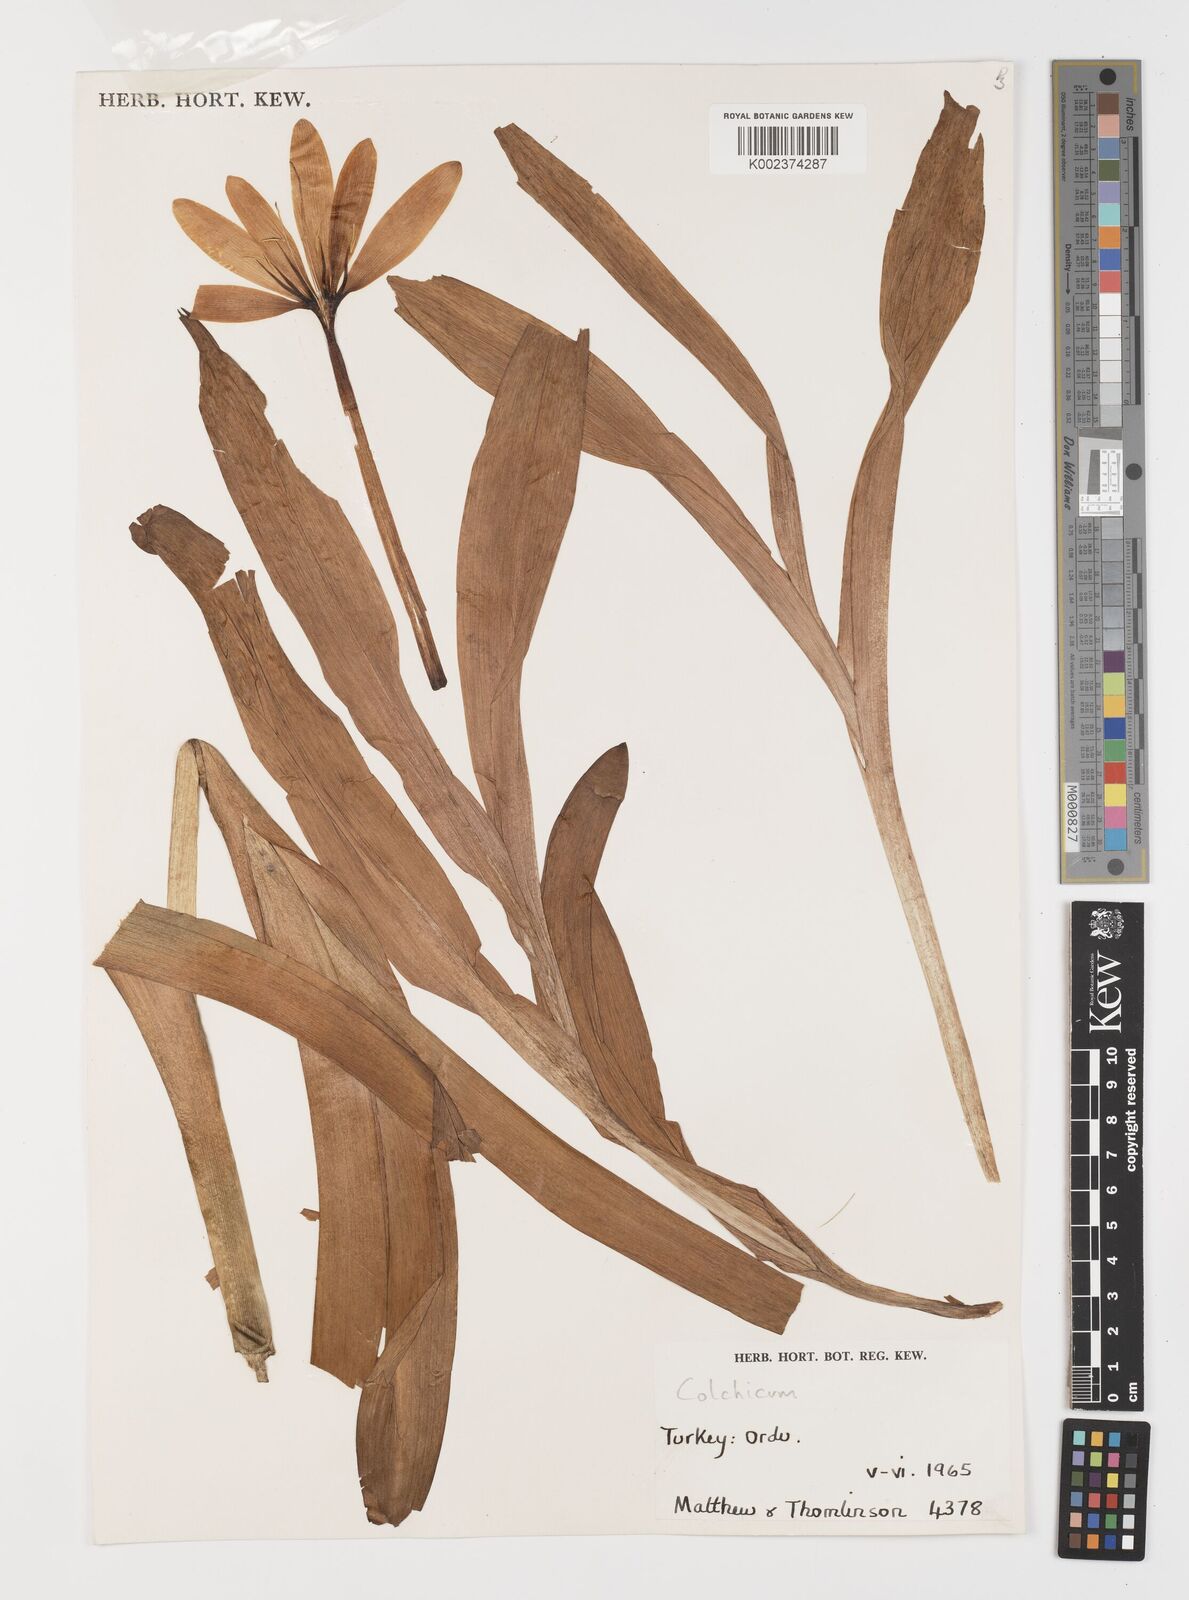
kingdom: Plantae
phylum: Tracheophyta
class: Liliopsida
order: Liliales
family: Colchicaceae
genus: Colchicum
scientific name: Colchicum
